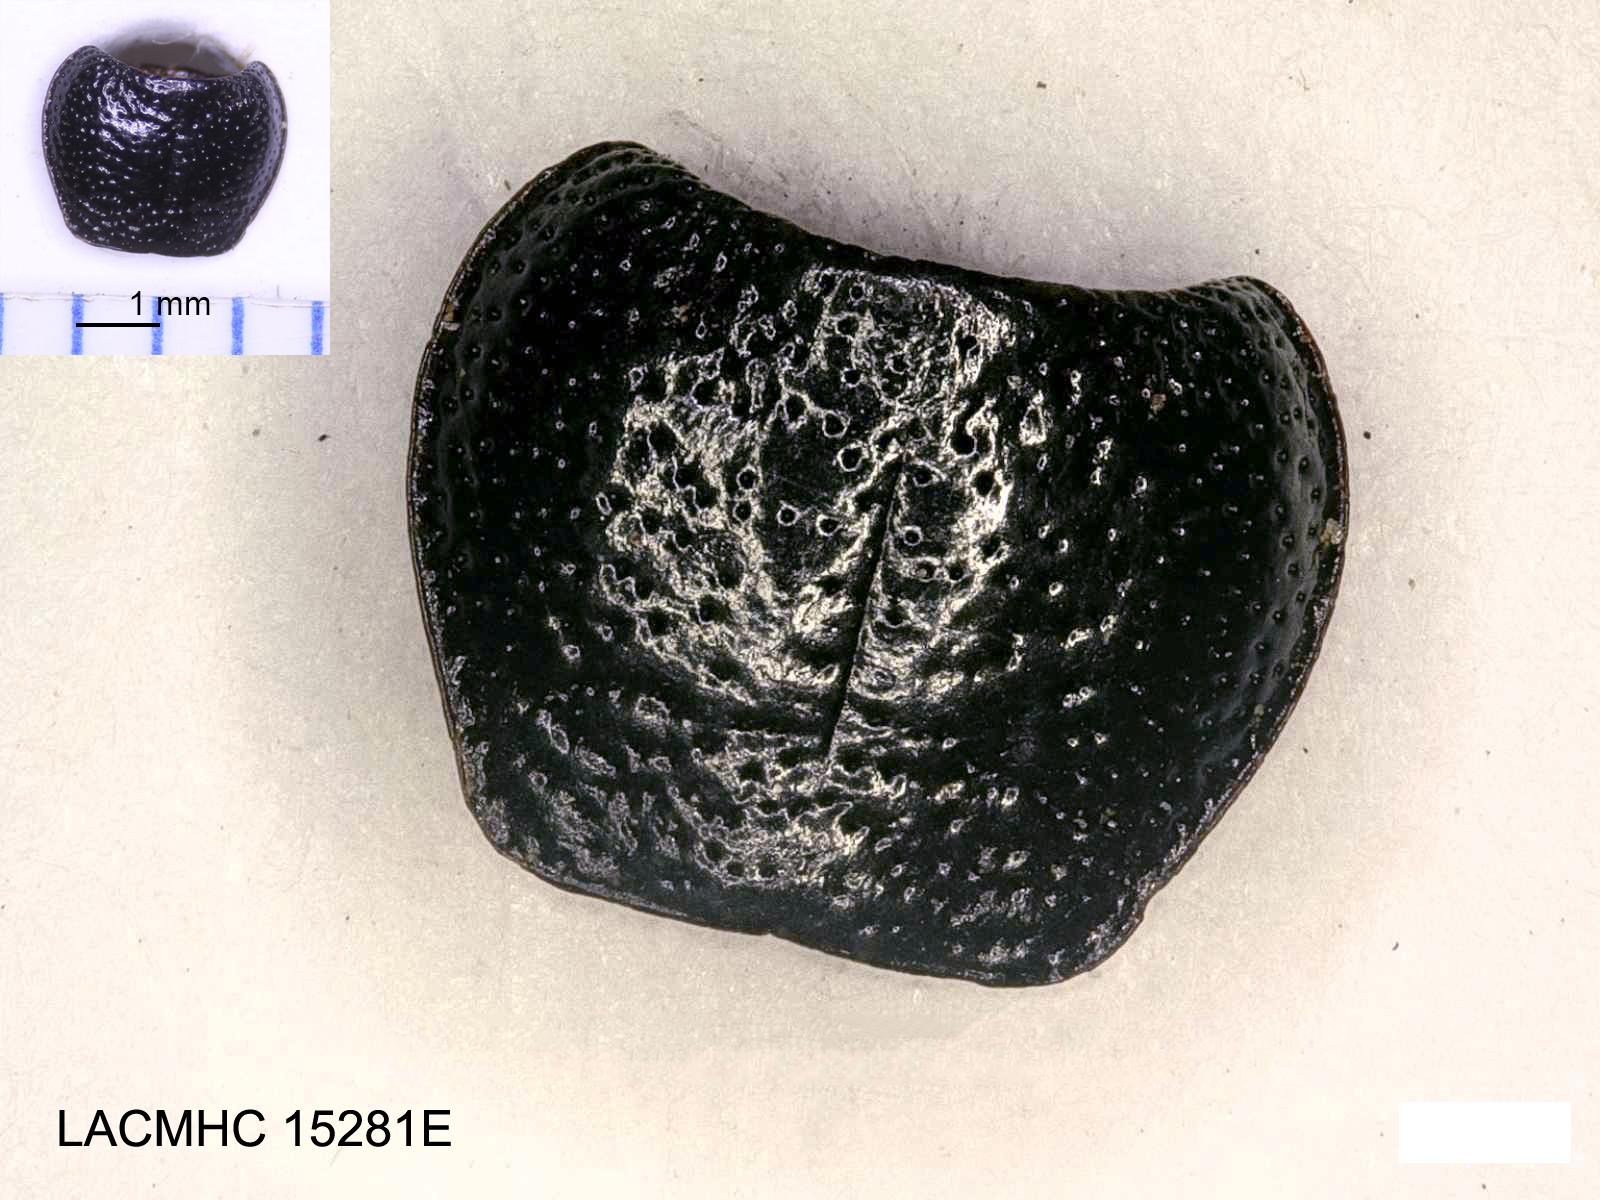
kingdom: Animalia
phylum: Arthropoda
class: Insecta
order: Coleoptera
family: Carabidae
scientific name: Carabidae
